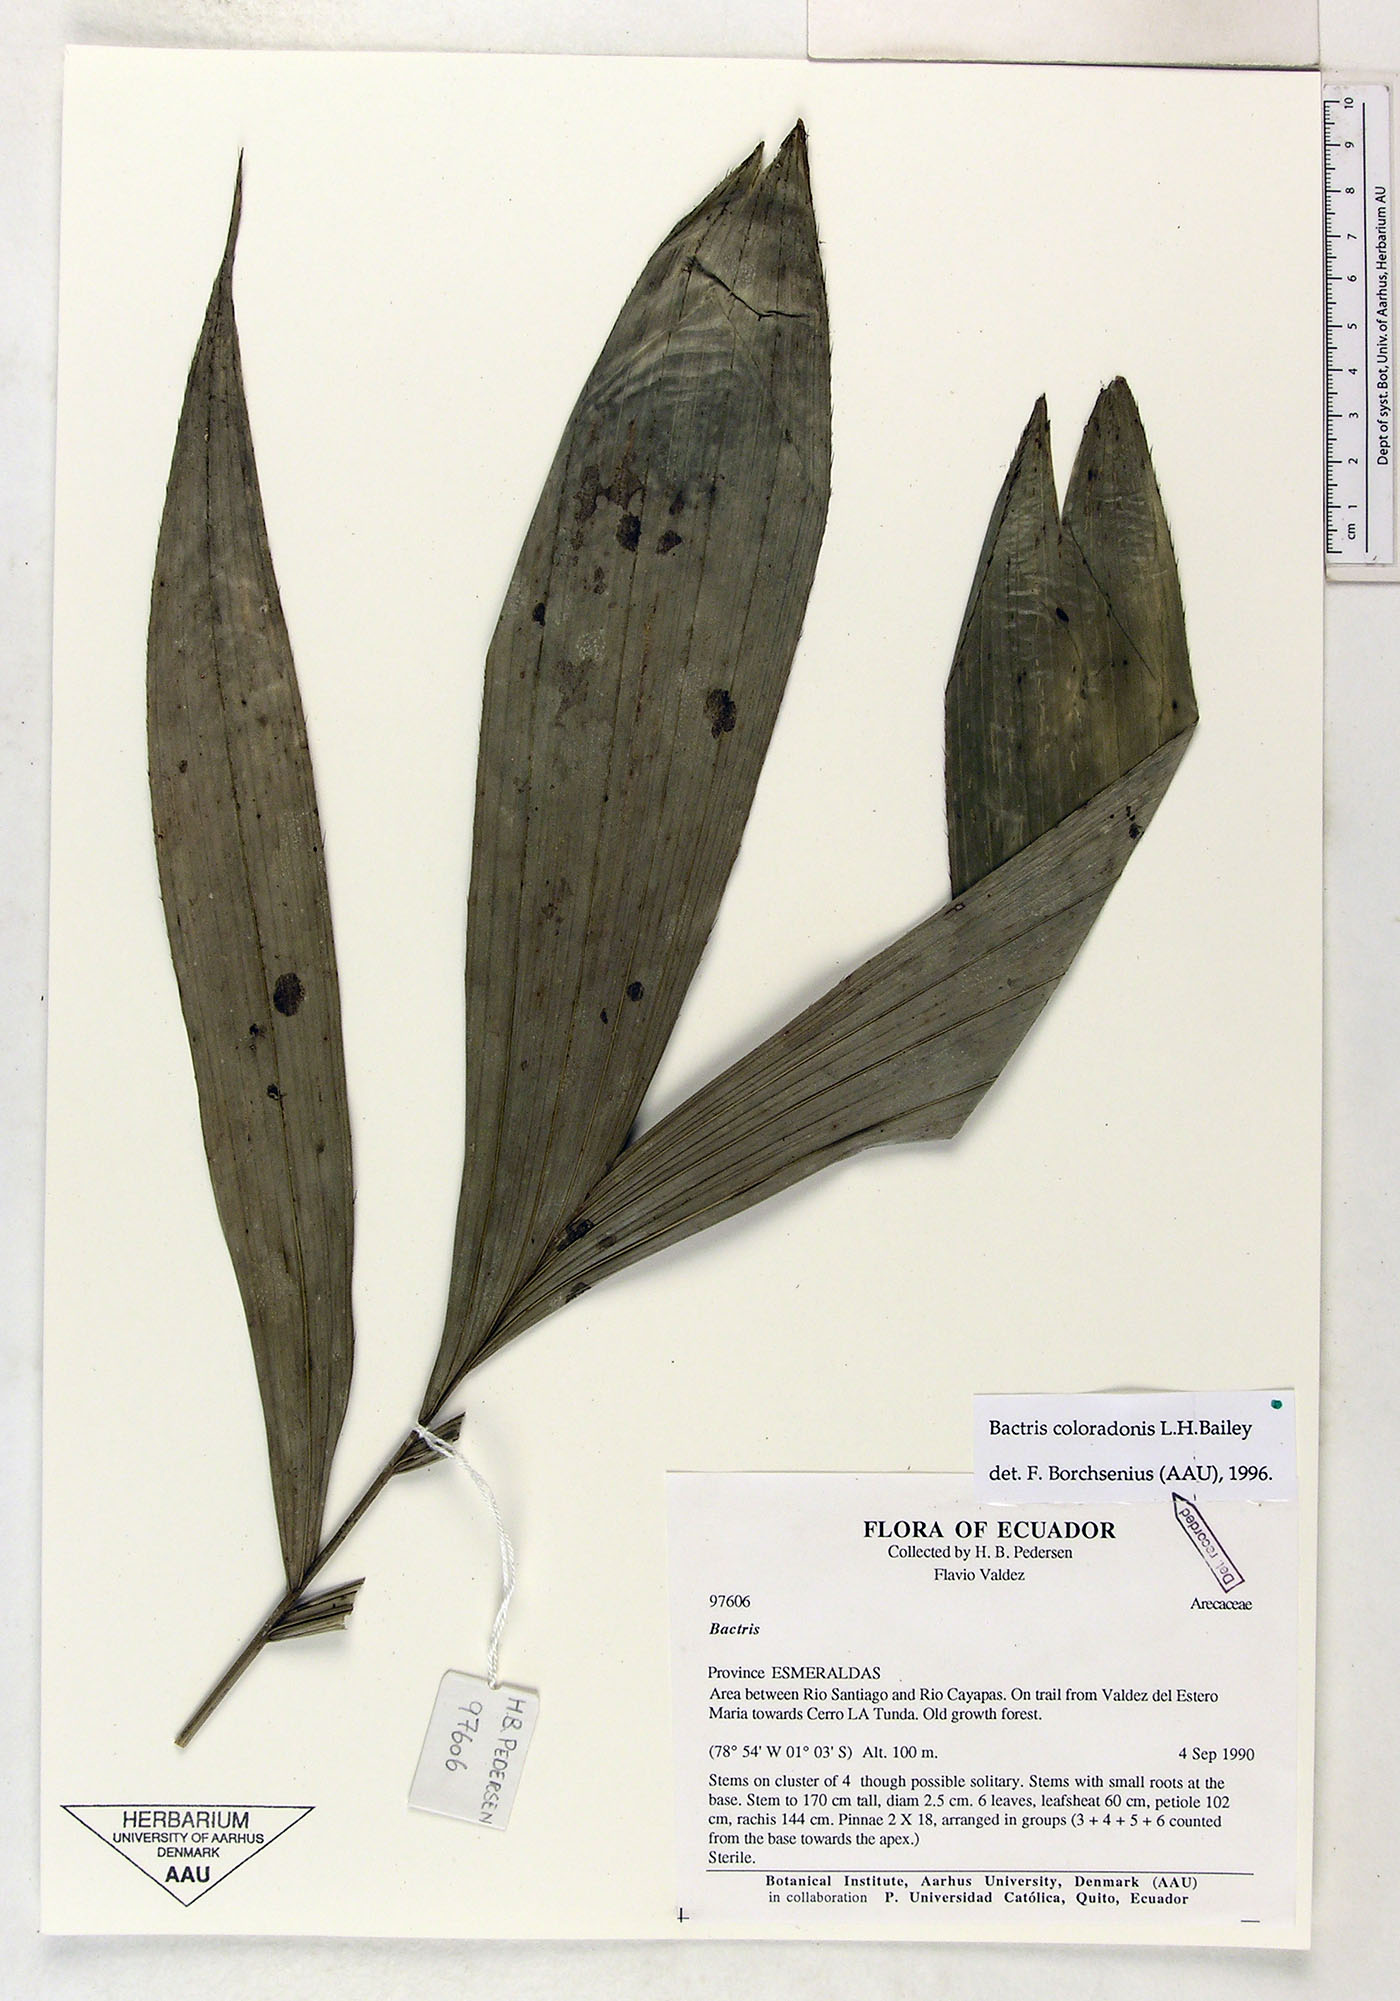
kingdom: Plantae
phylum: Tracheophyta
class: Liliopsida
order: Arecales
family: Arecaceae
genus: Bactris
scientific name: Bactris coloradonis
